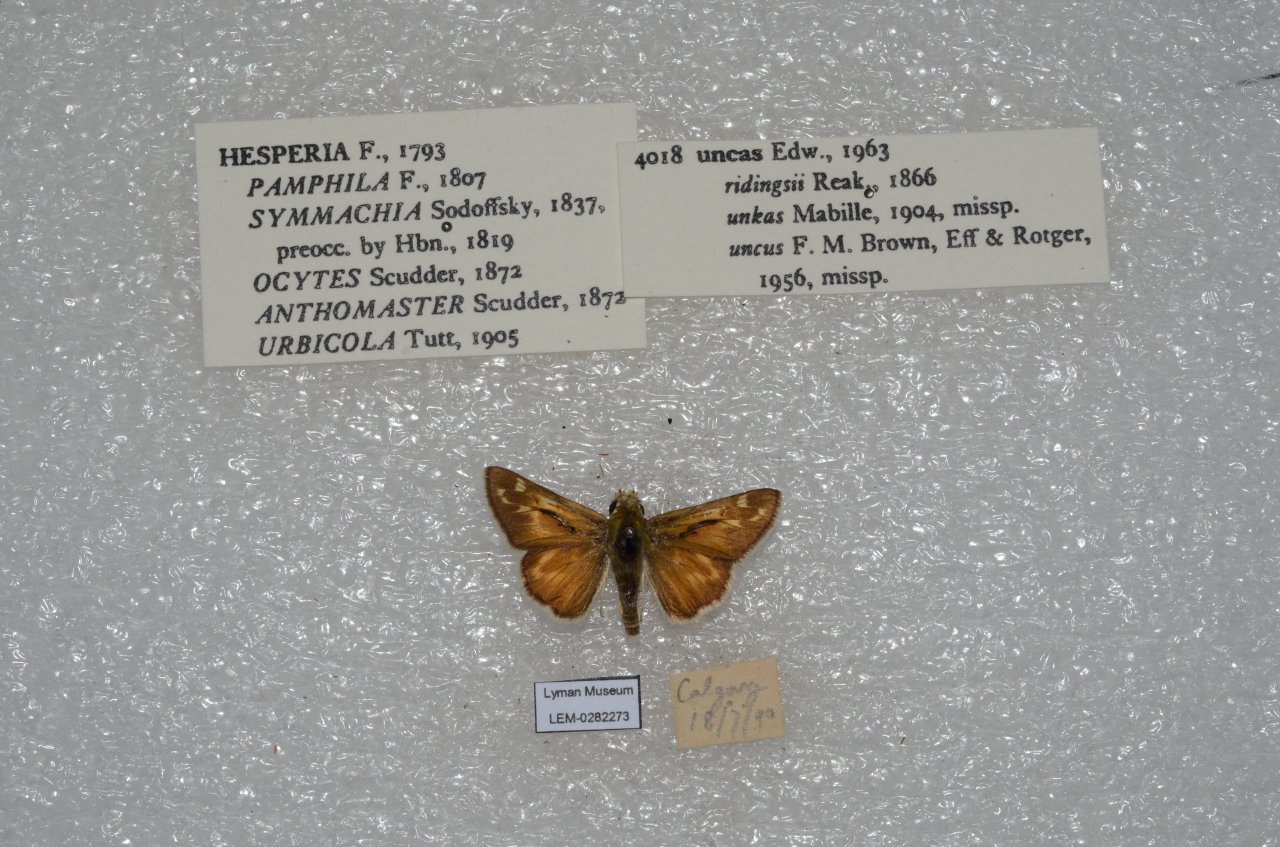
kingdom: Animalia
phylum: Arthropoda
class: Insecta
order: Lepidoptera
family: Hesperiidae
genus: Hesperia
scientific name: Hesperia uncas
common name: Uncas Skipper
